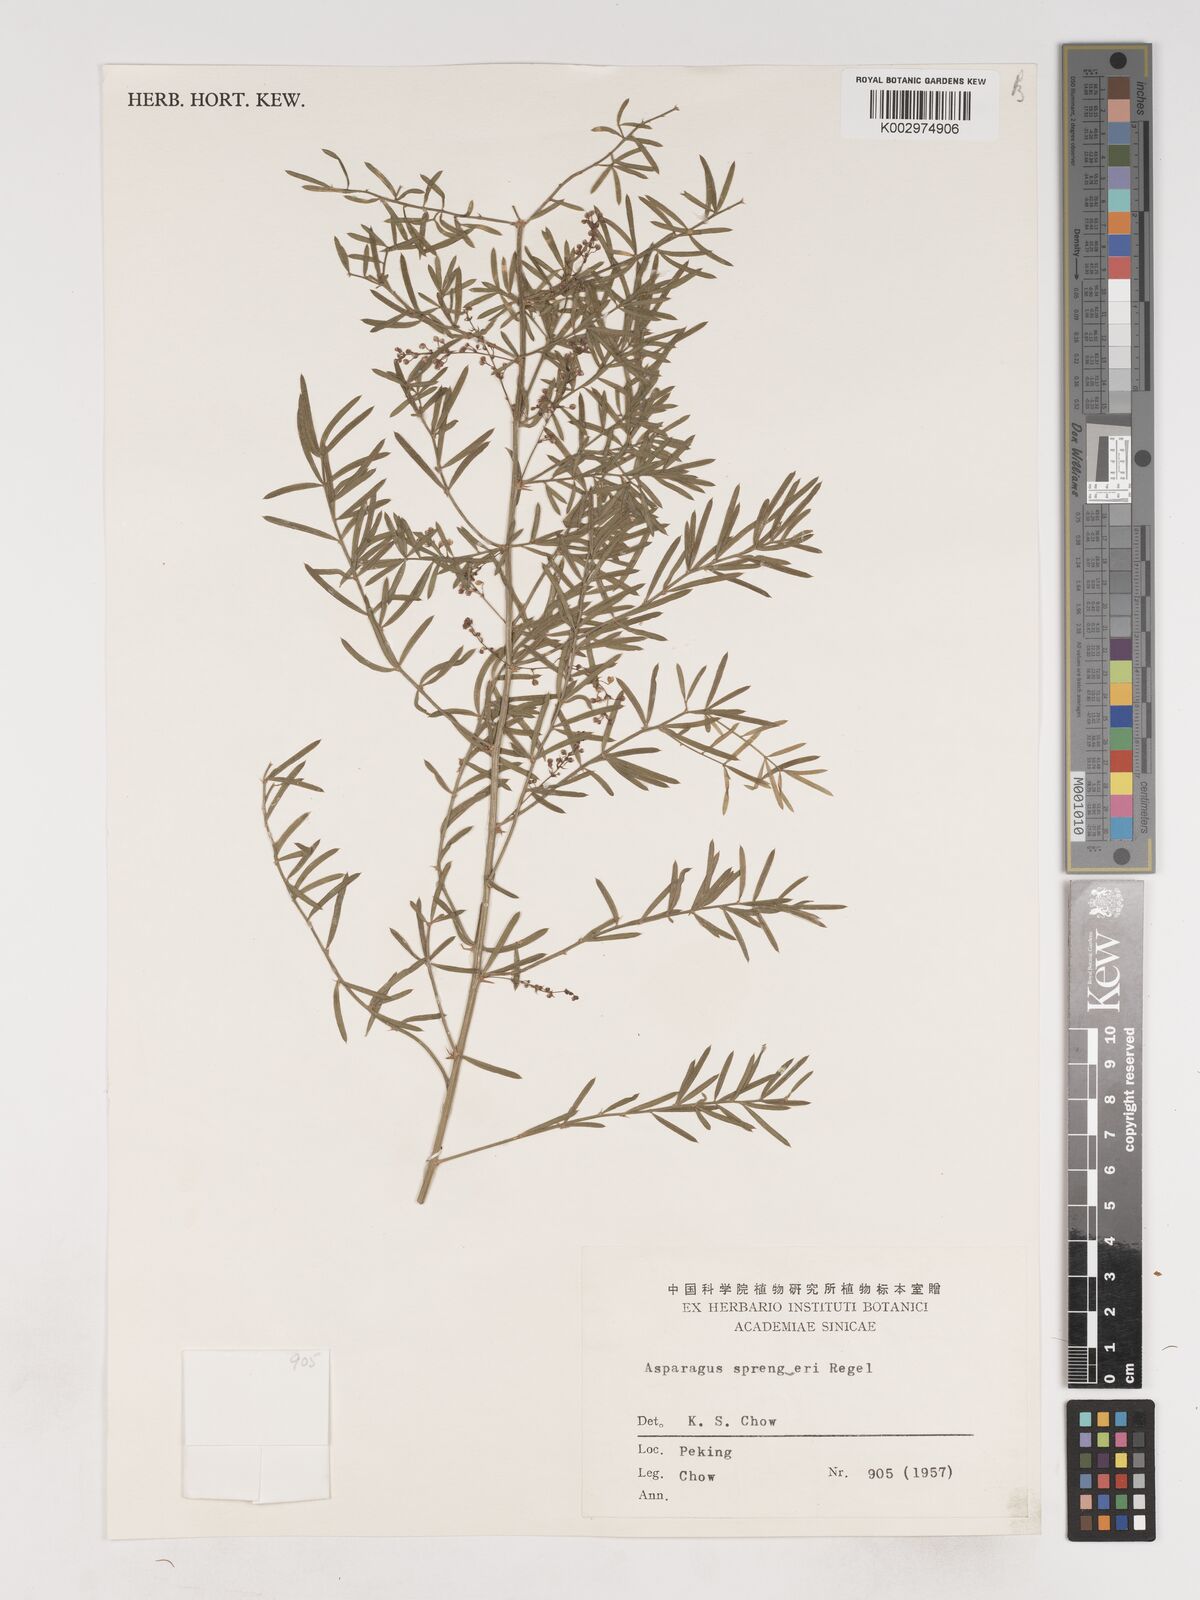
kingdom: Plantae
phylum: Tracheophyta
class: Liliopsida
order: Asparagales
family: Asparagaceae
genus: Asparagus
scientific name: Asparagus densiflorus
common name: Asparagus fern
